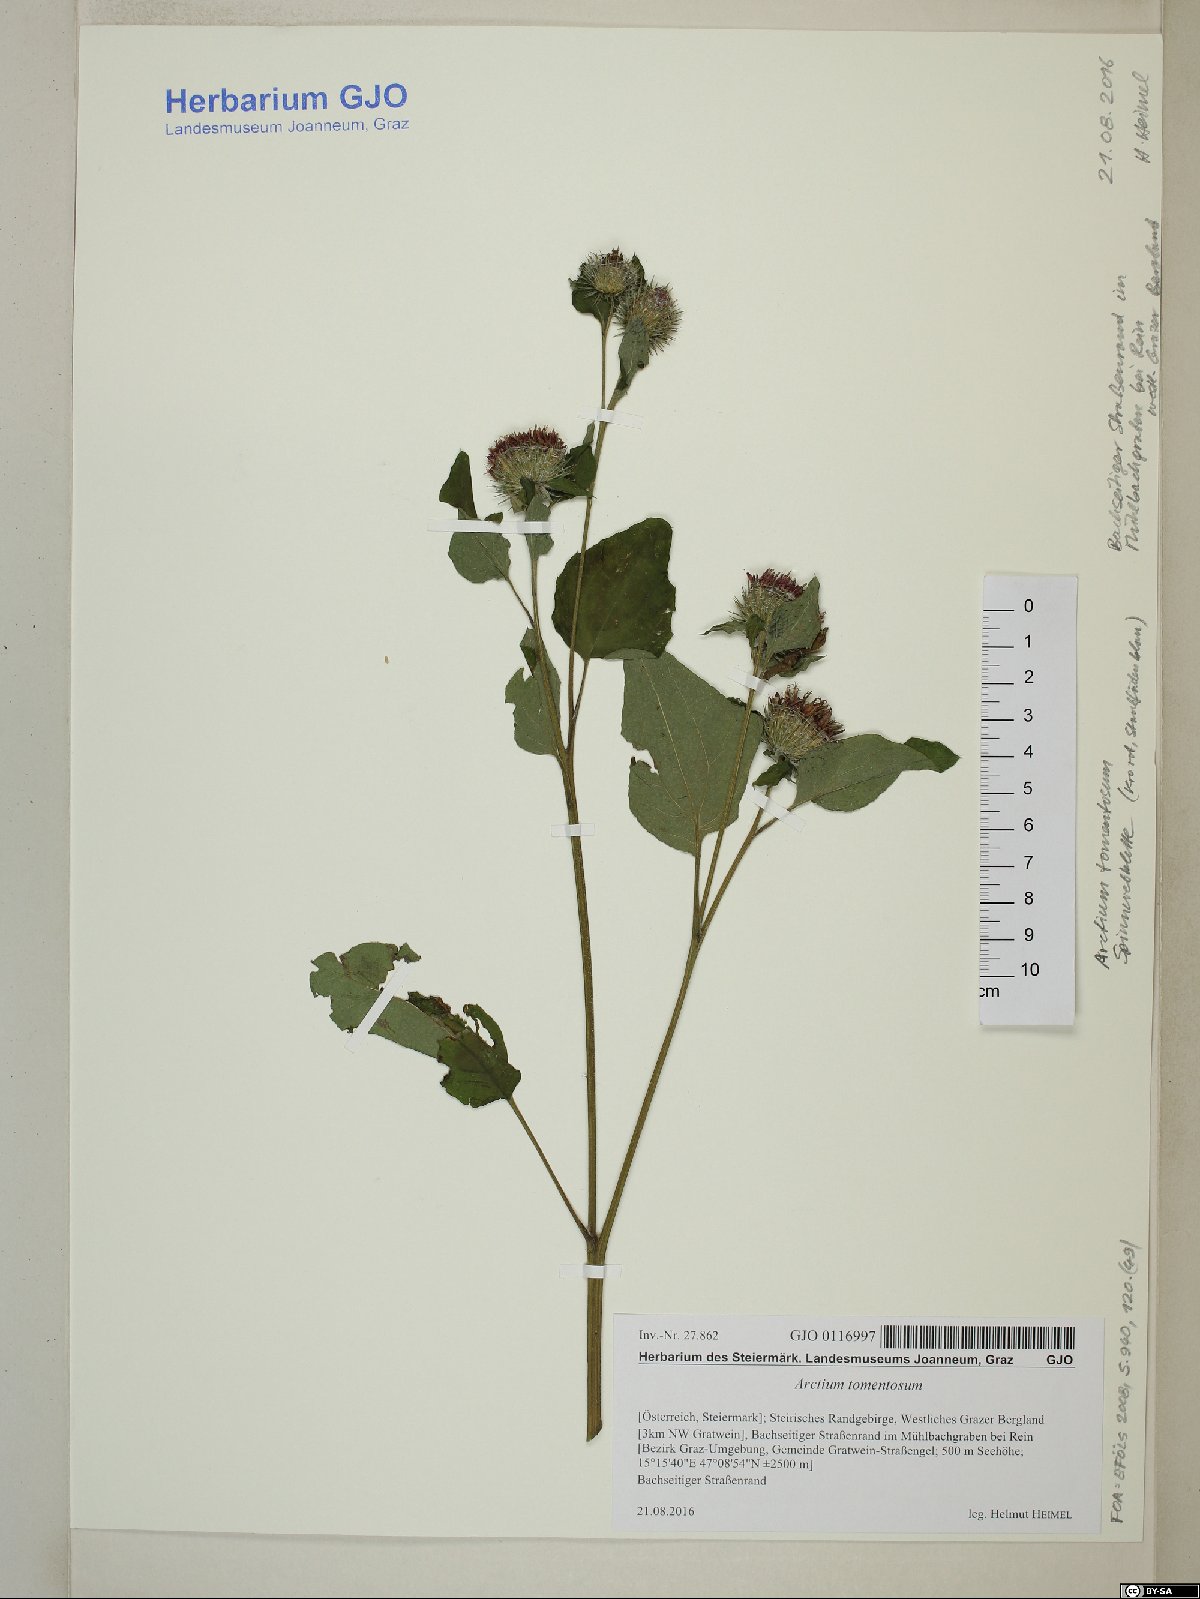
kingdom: Plantae
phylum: Tracheophyta
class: Magnoliopsida
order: Asterales
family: Asteraceae
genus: Arctium
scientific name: Arctium tomentosum
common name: Woolly burdock
